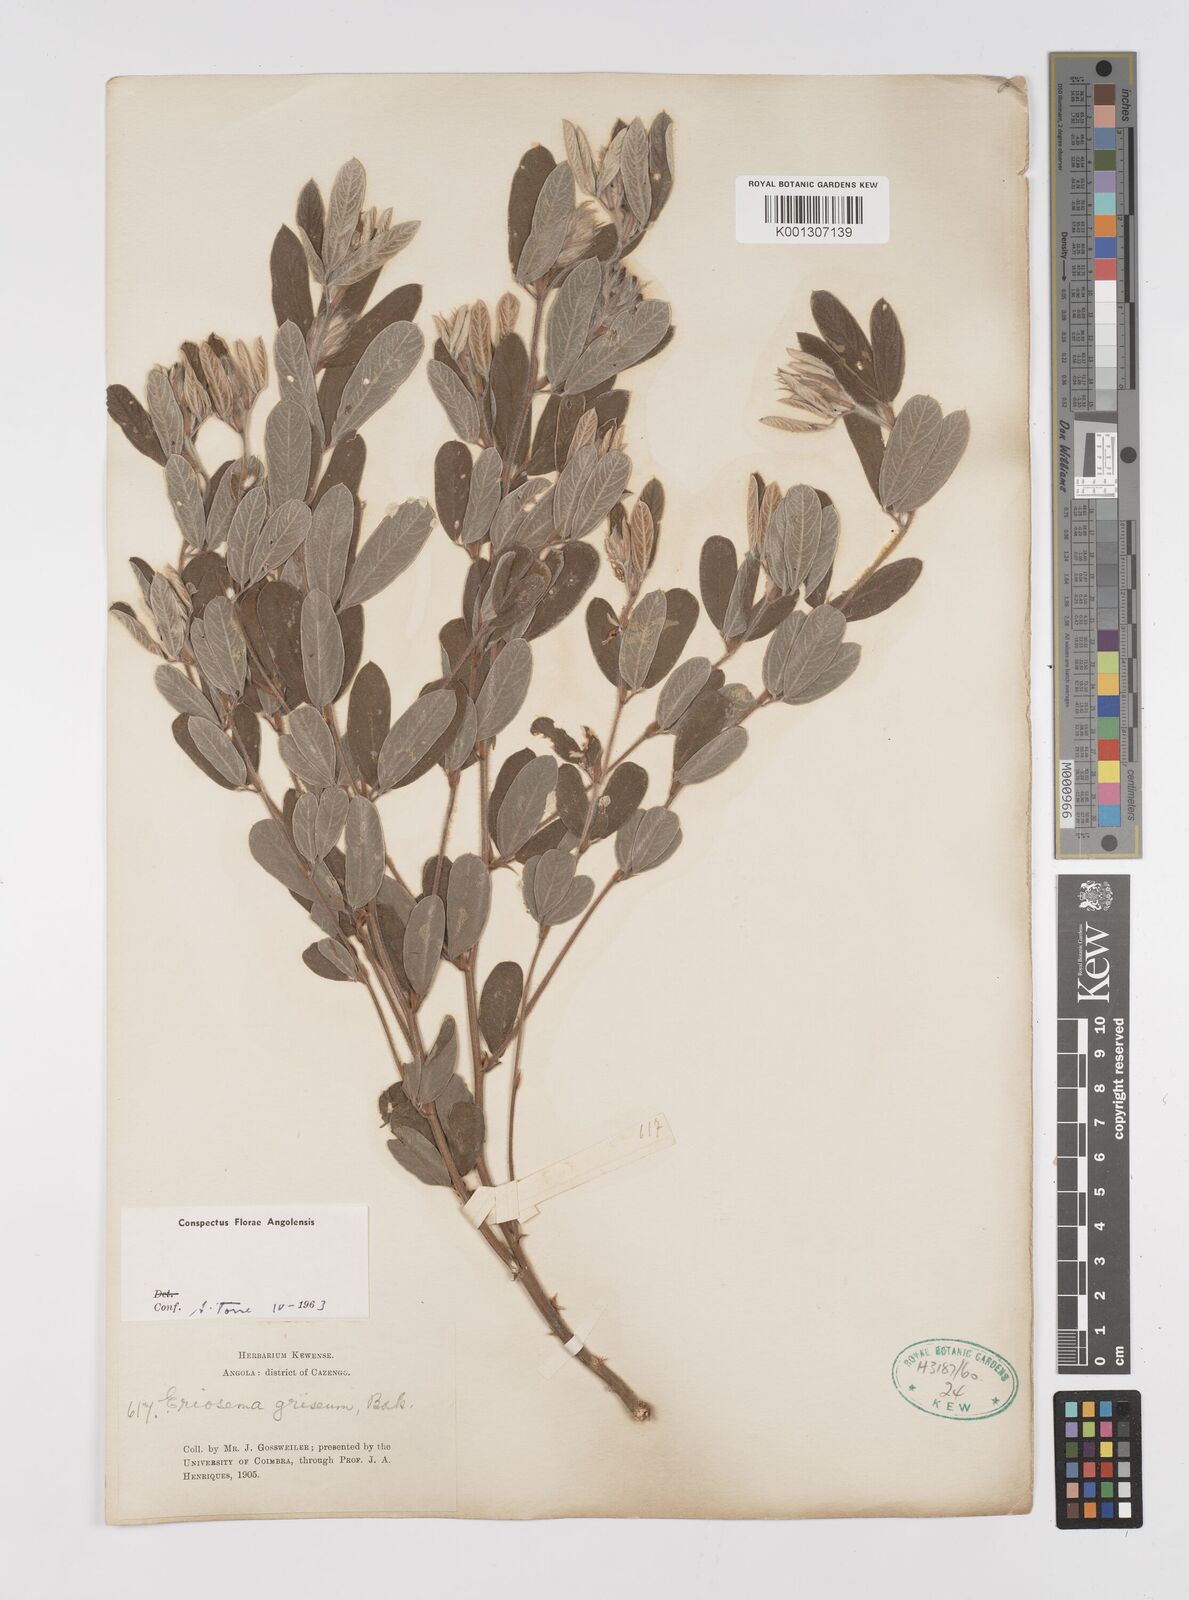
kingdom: Plantae
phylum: Tracheophyta
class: Magnoliopsida
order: Fabales
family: Fabaceae
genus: Eriosema
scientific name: Eriosema griseum
